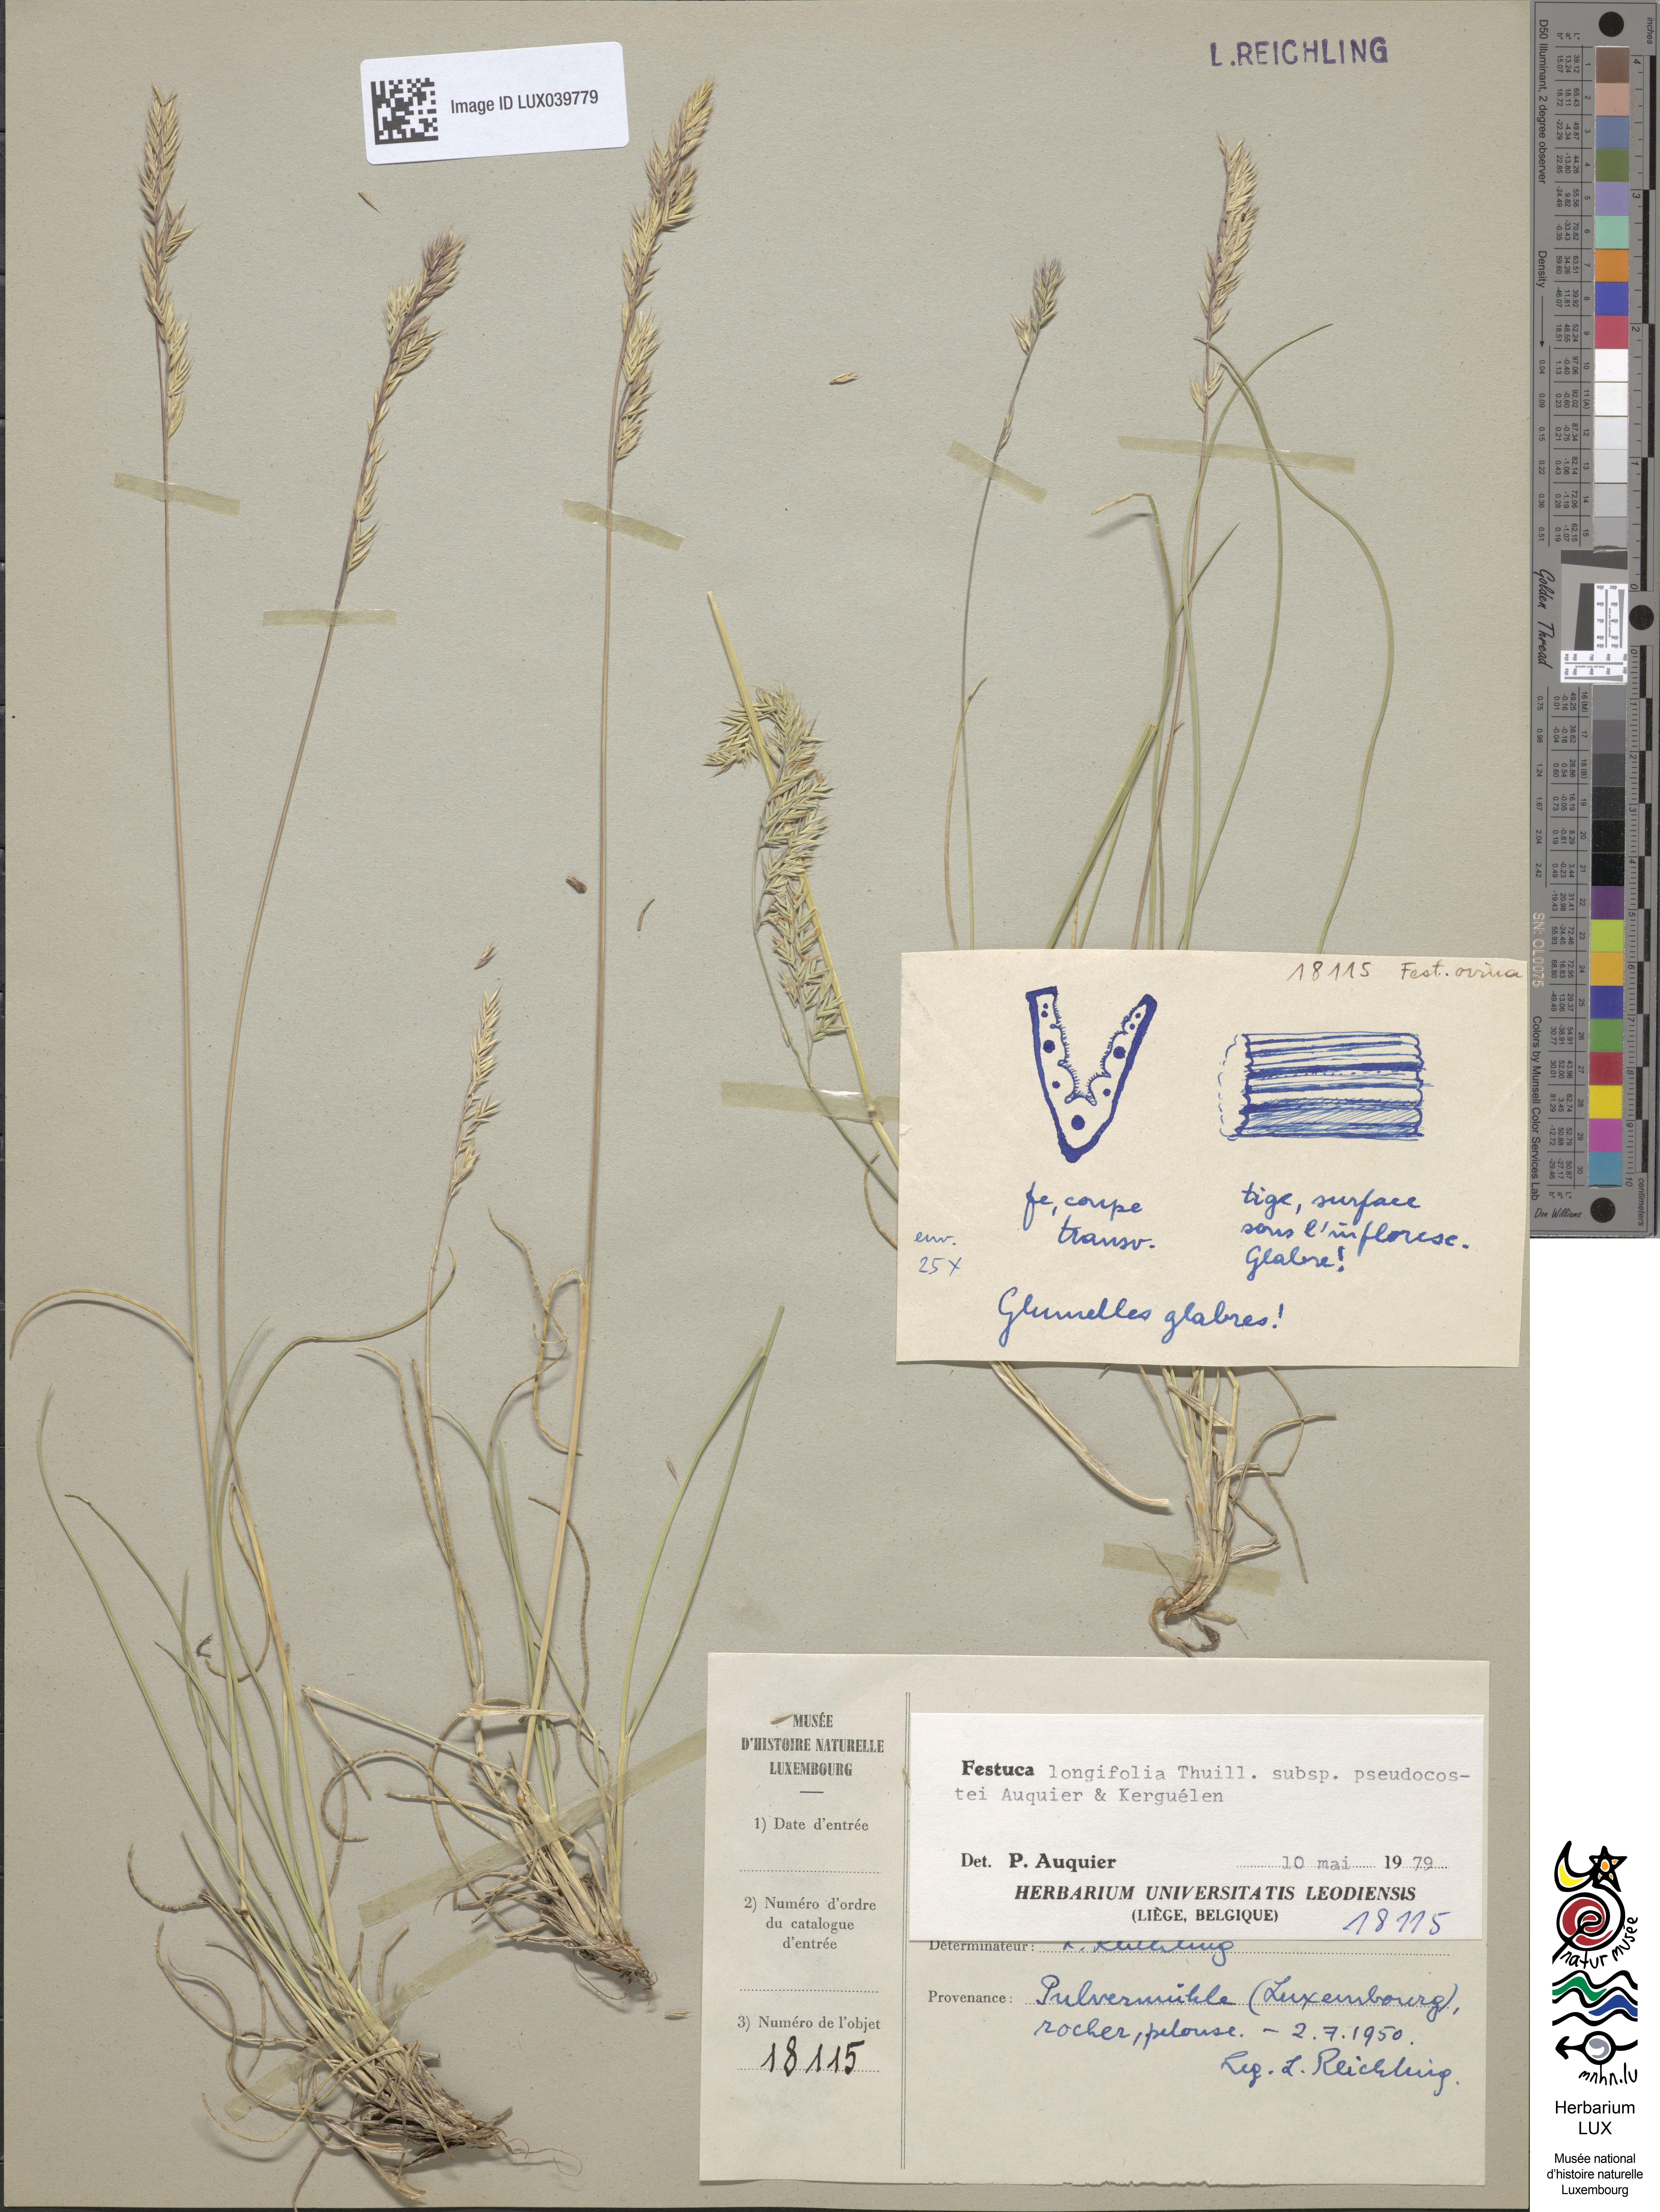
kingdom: Plantae
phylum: Tracheophyta
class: Liliopsida
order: Poales
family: Poaceae
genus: Festuca
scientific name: Festuca longifolia
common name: Blue fescue
